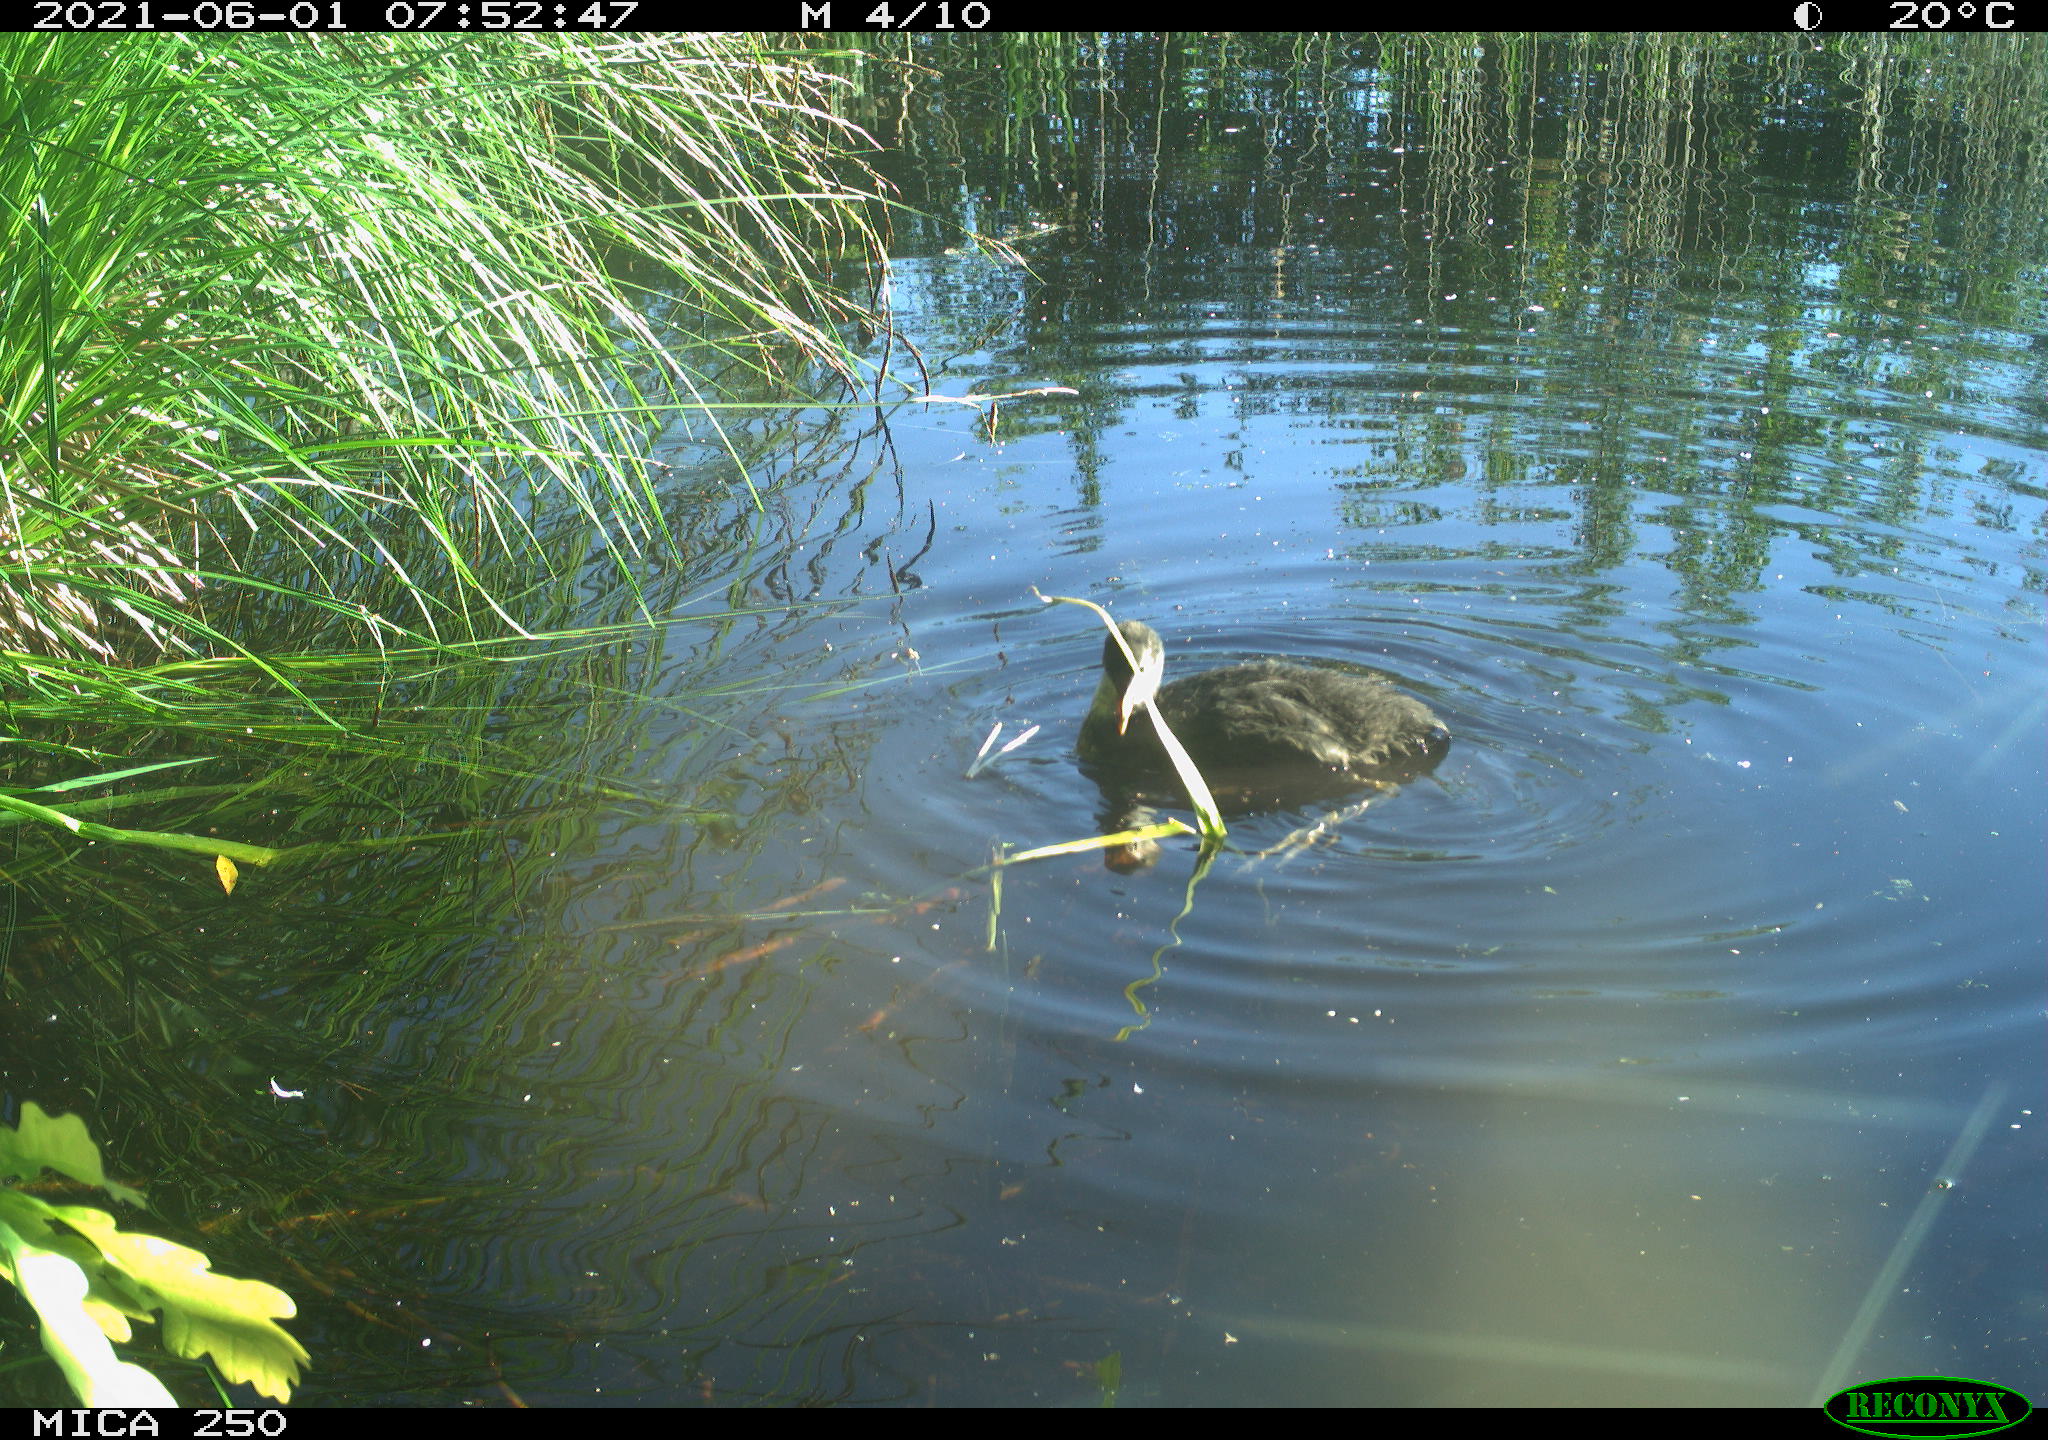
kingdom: Animalia
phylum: Chordata
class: Aves
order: Gruiformes
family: Rallidae
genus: Gallinula
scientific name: Gallinula chloropus
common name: Common moorhen
